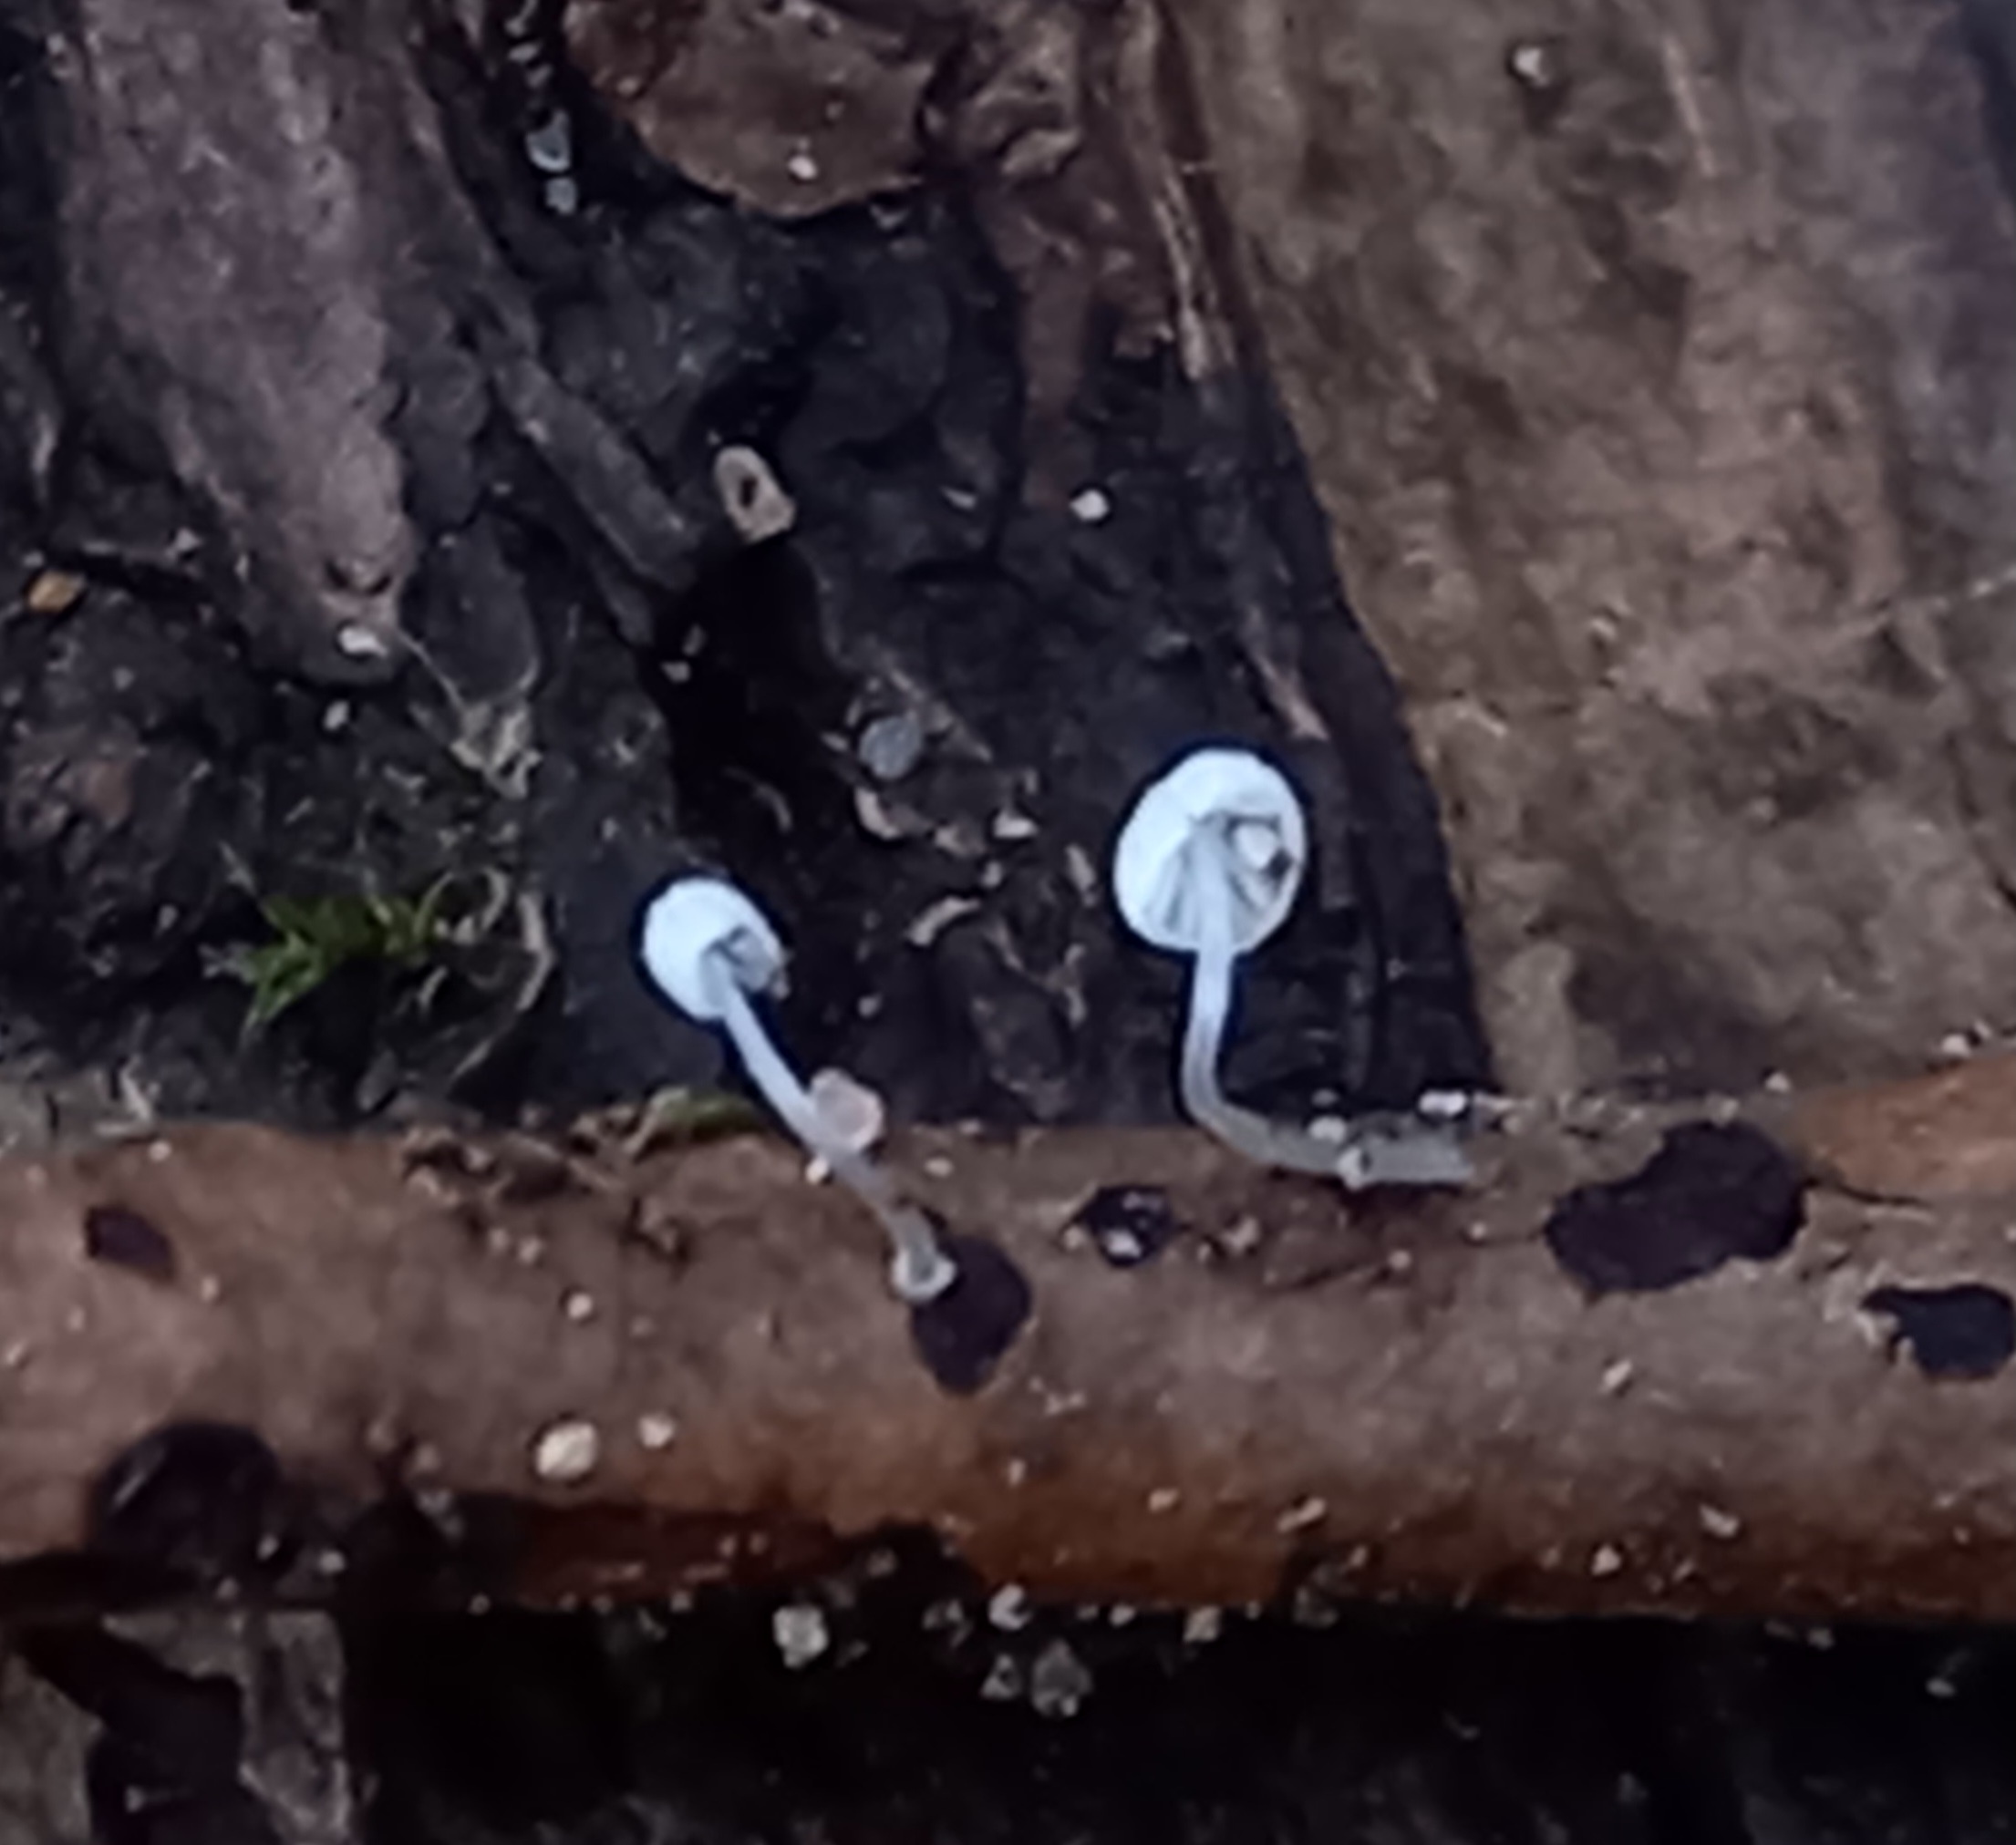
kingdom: Fungi
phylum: Basidiomycota
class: Agaricomycetes
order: Agaricales
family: Mycenaceae
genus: Mycena
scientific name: Mycena
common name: huesvamp
